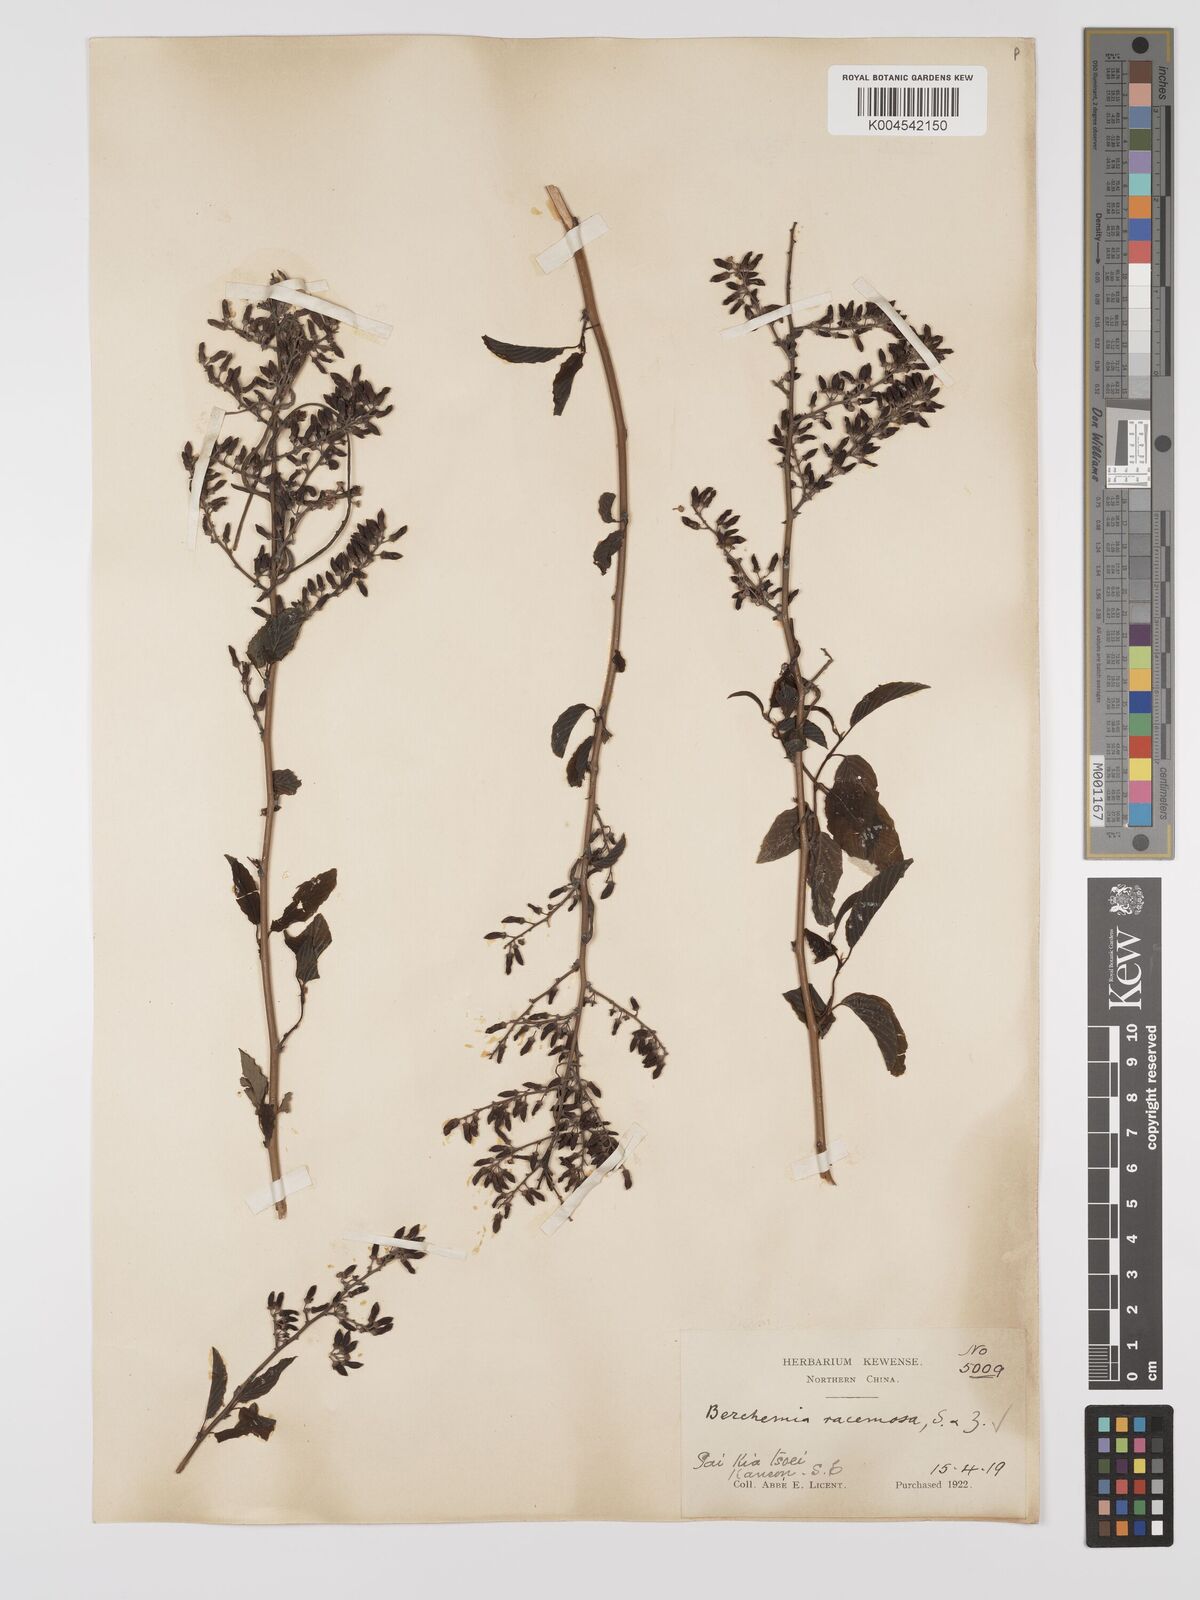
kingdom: Plantae
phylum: Tracheophyta
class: Magnoliopsida
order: Rosales
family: Rhamnaceae
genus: Berchemia
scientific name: Berchemia floribunda
